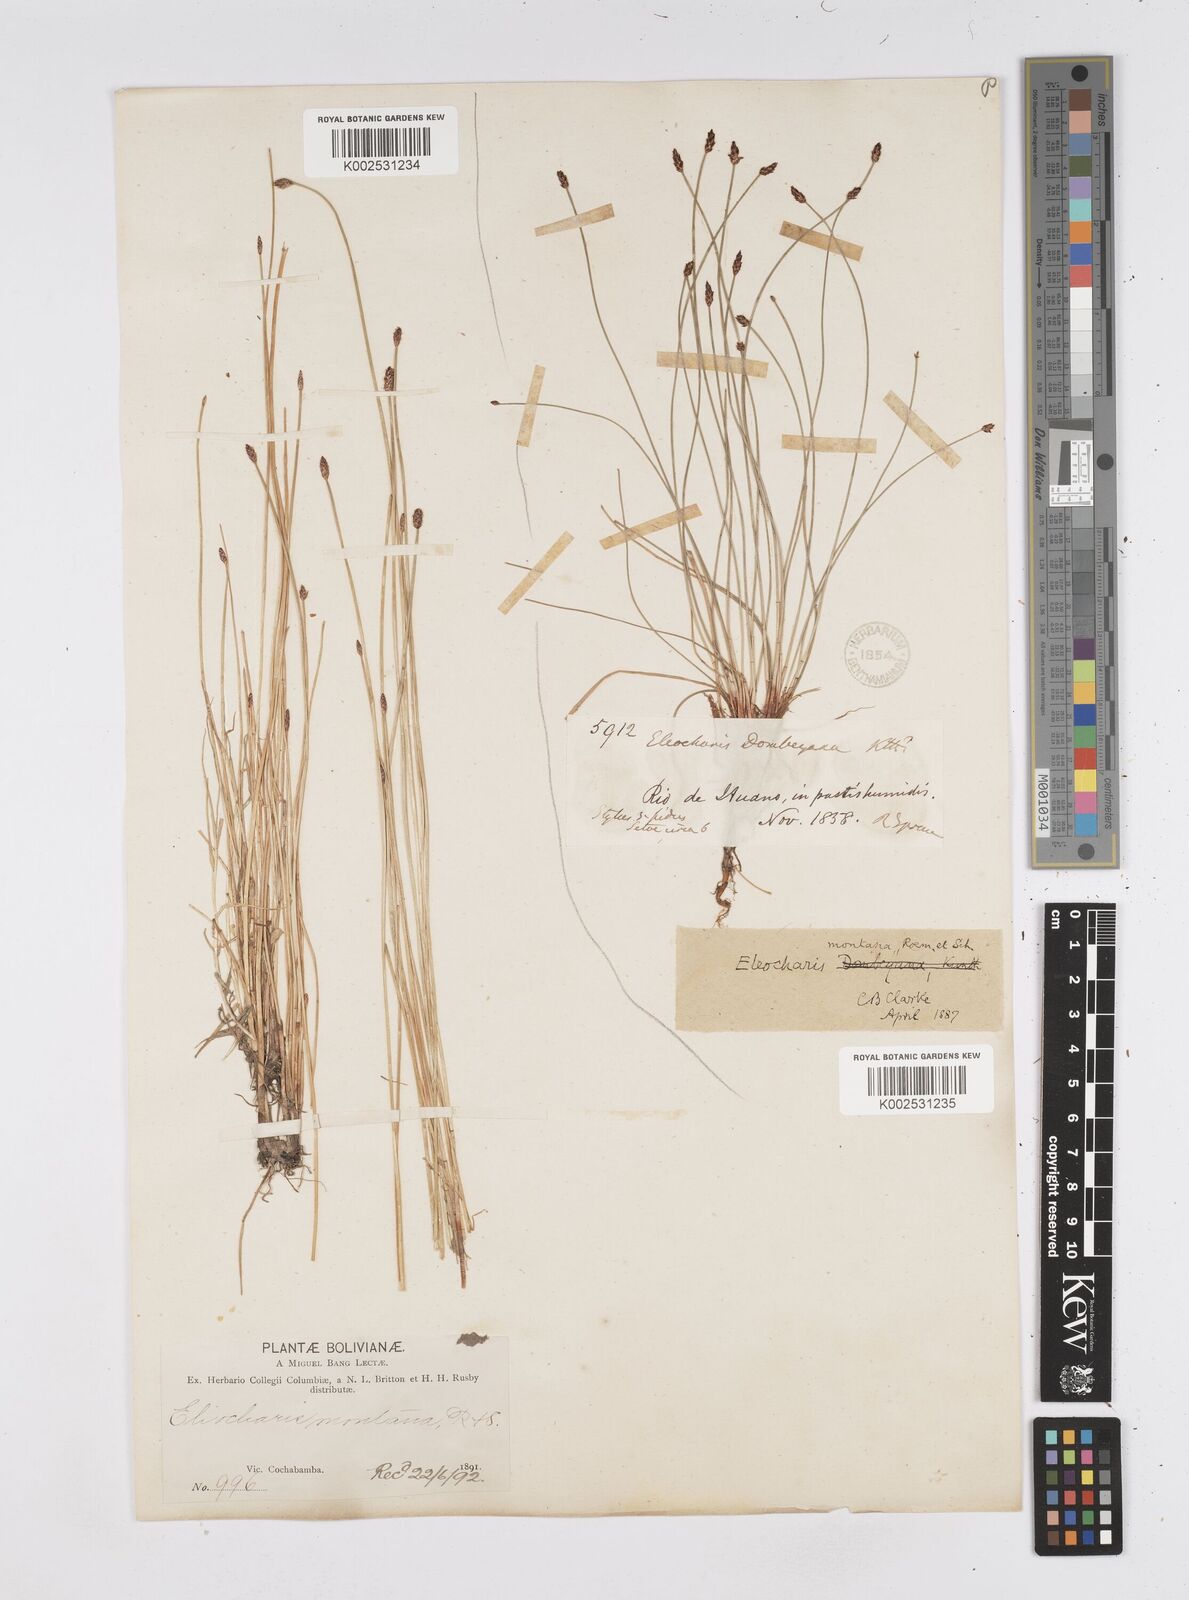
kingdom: Plantae
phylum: Tracheophyta
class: Liliopsida
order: Poales
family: Cyperaceae
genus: Eleocharis
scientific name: Eleocharis montana
